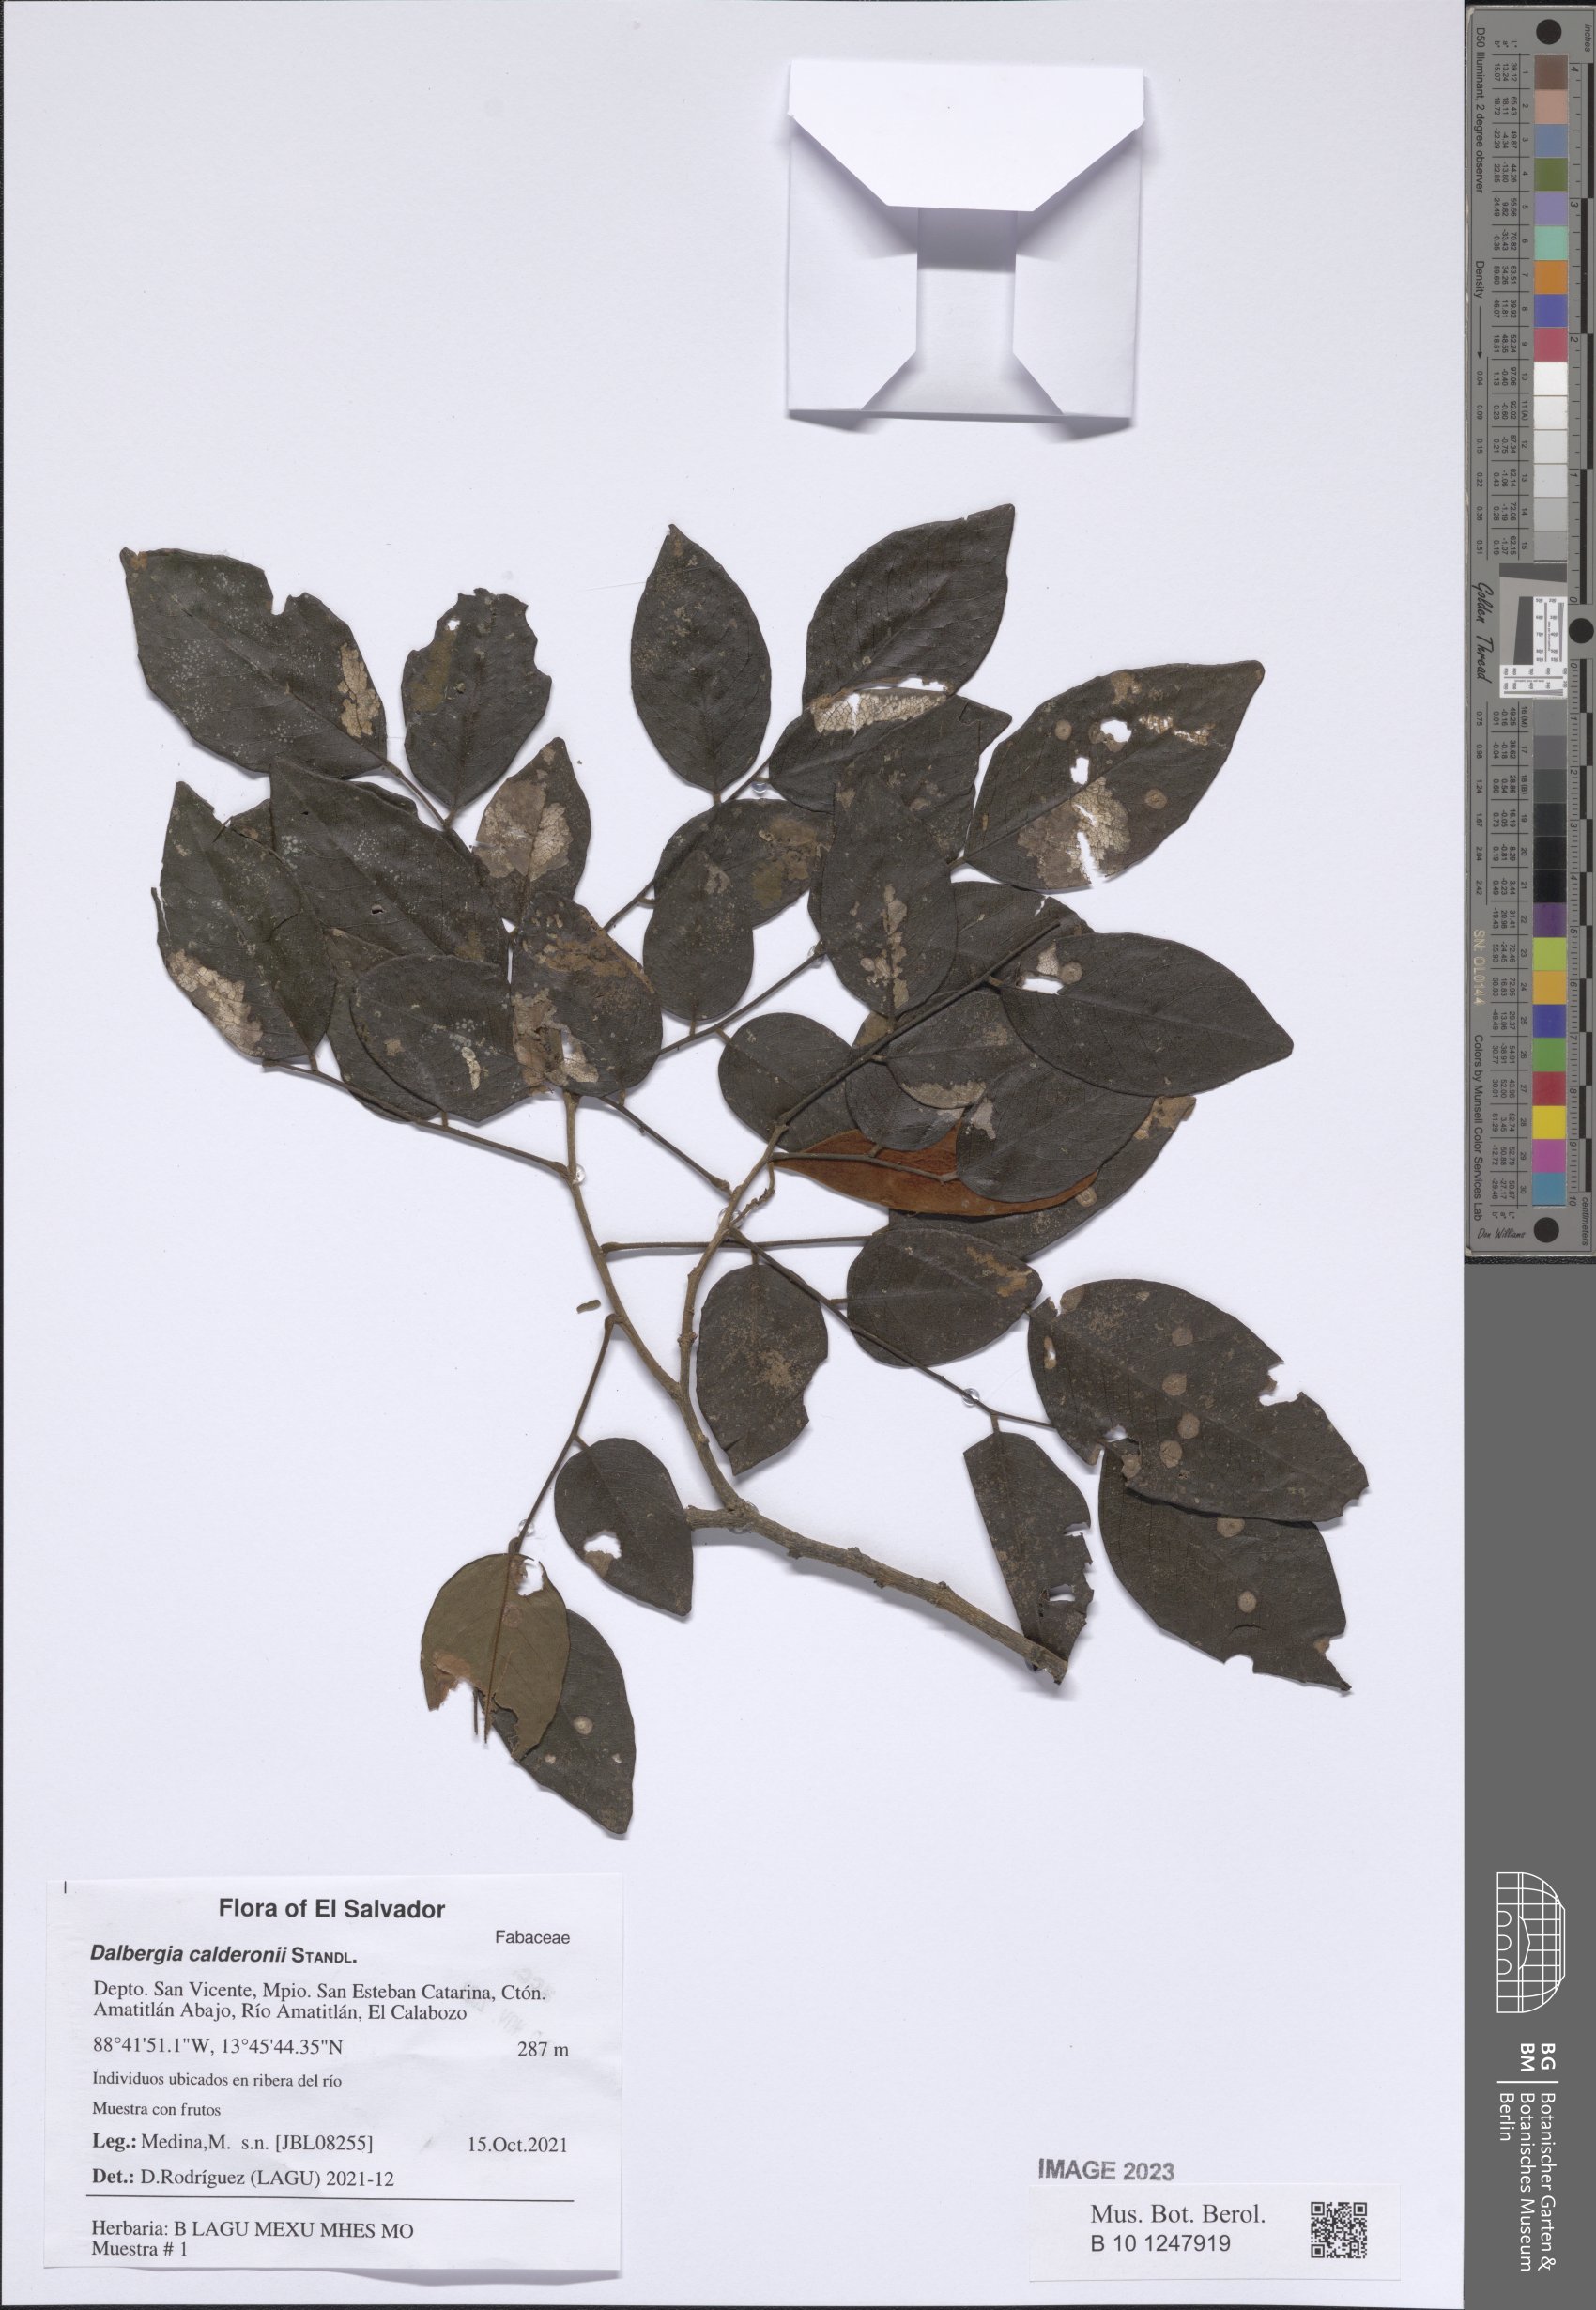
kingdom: Plantae
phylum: Tracheophyta
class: Magnoliopsida
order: Fabales
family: Fabaceae
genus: Dalbergia
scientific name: Dalbergia calderonii
